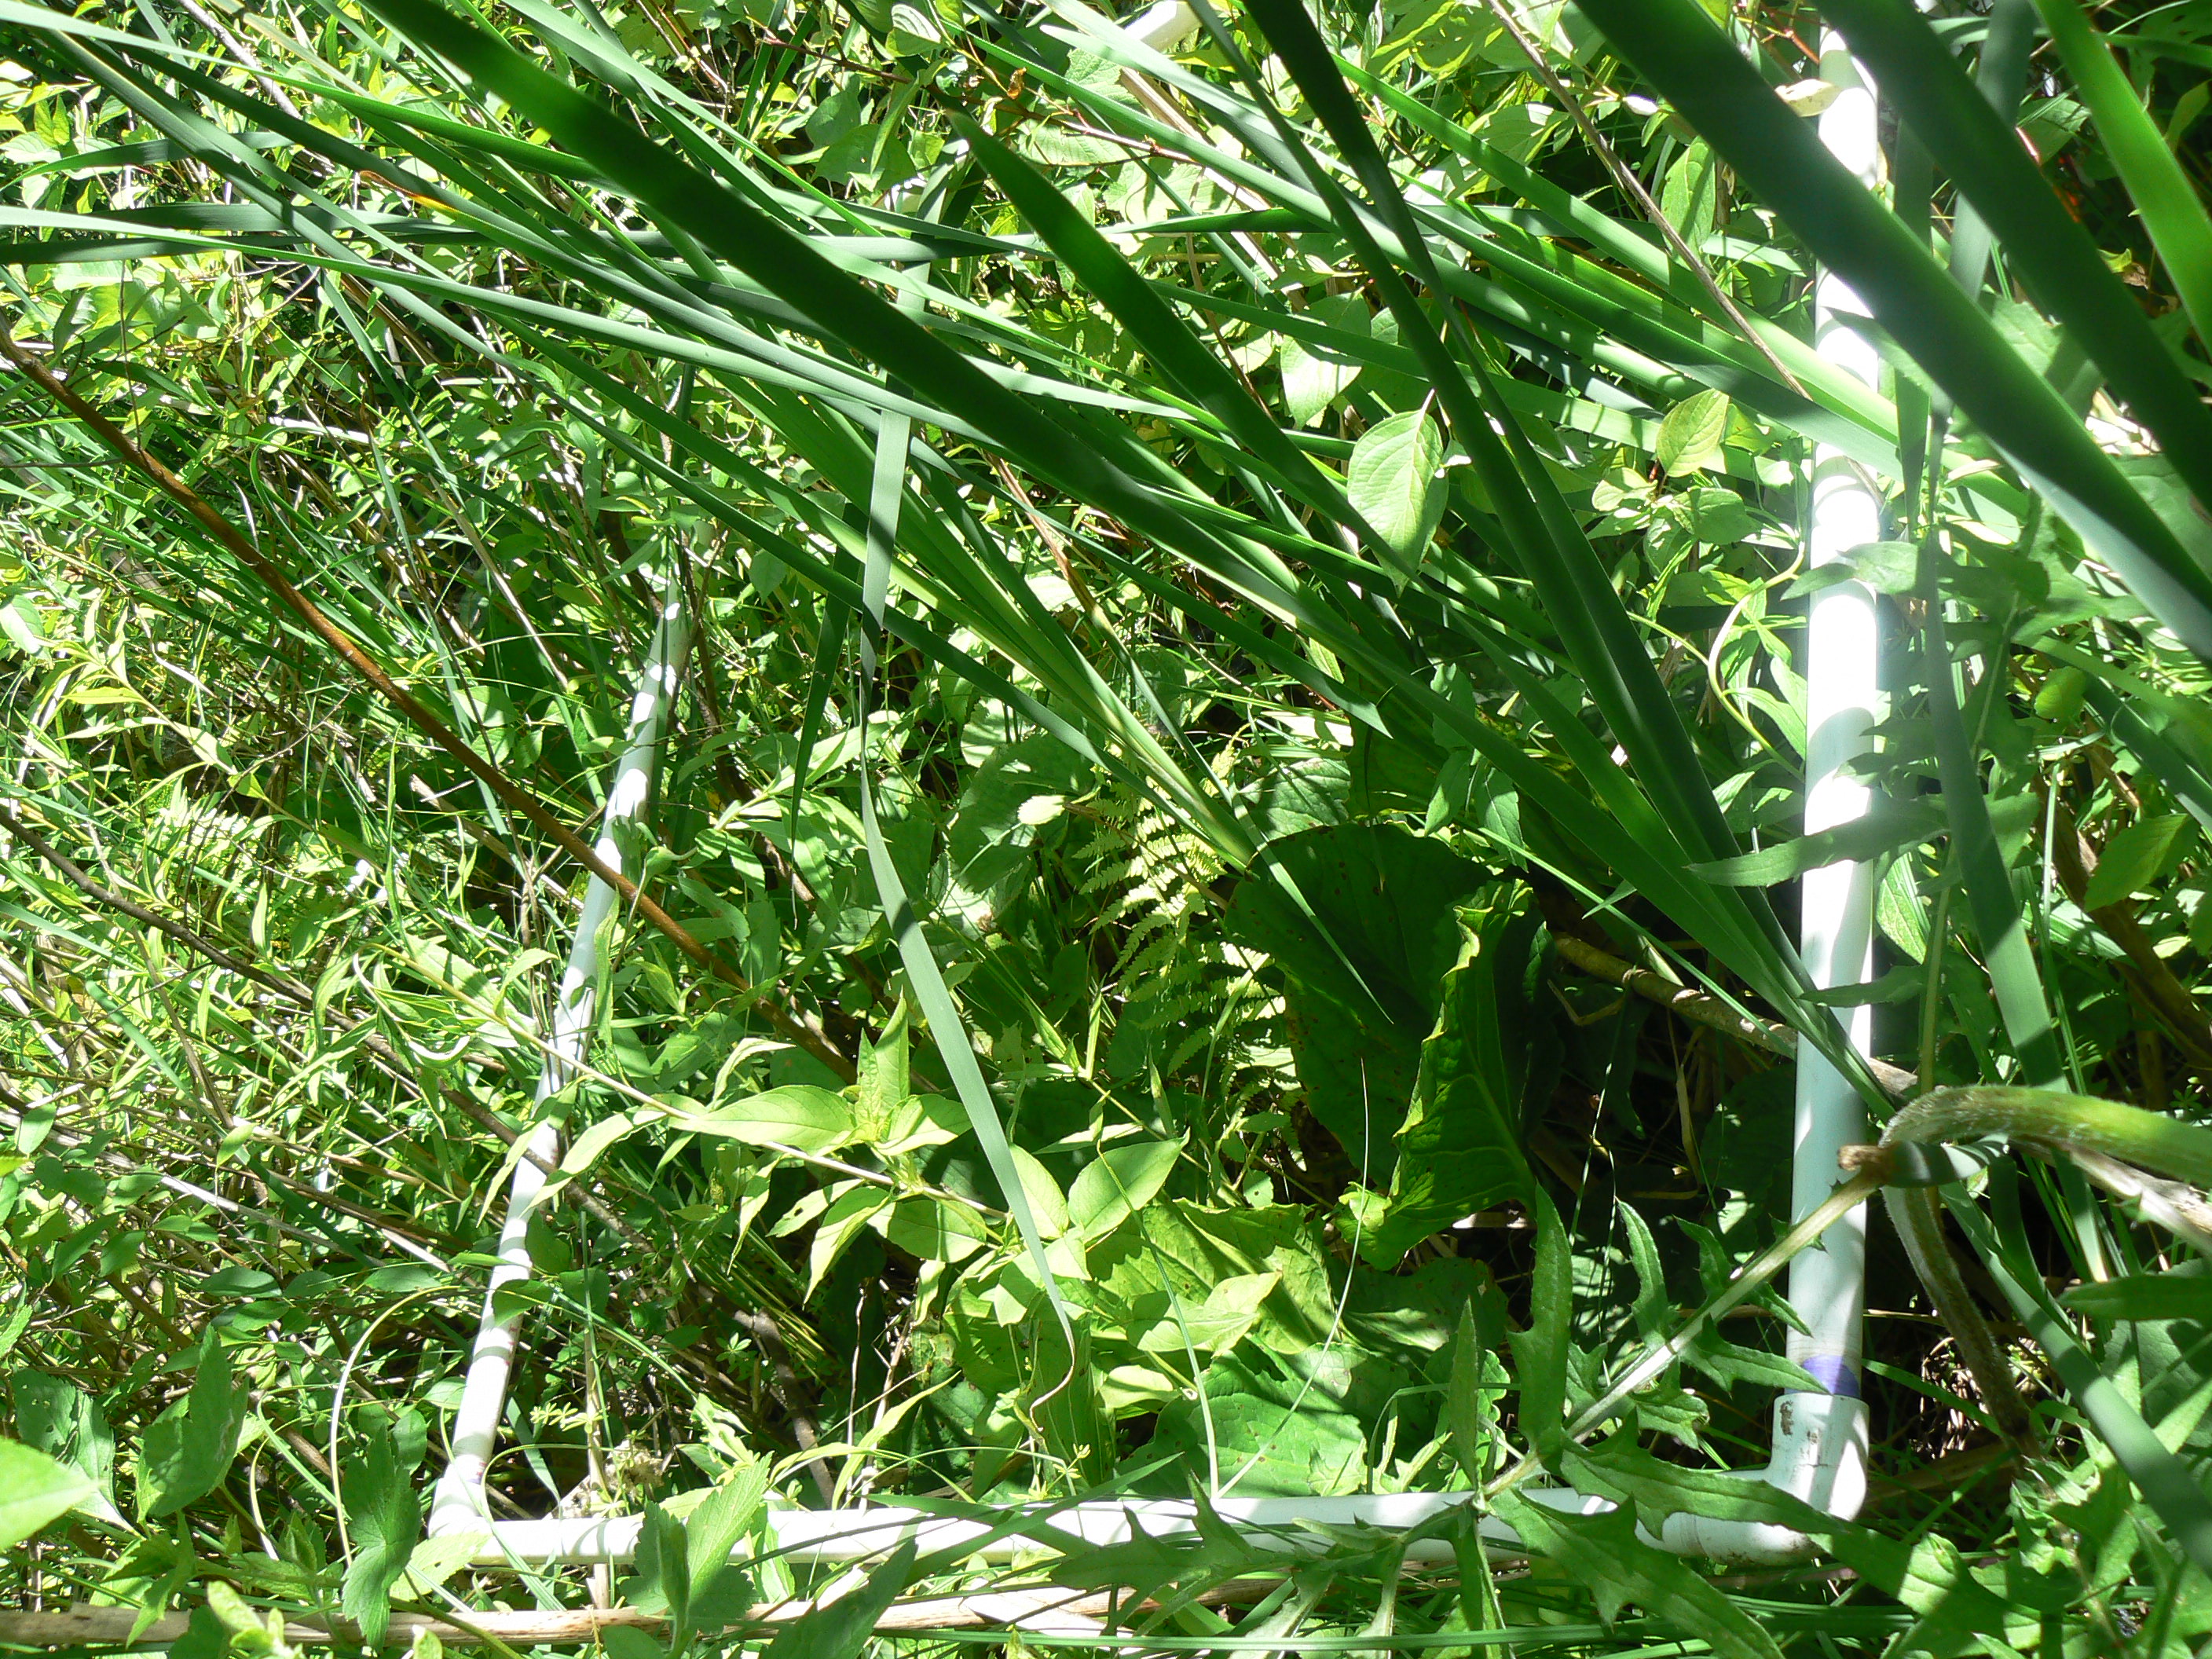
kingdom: Plantae
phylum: Tracheophyta
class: Magnoliopsida
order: Asterales
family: Asteraceae
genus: Solidago
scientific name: Solidago gigantea
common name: Giant goldenrod
